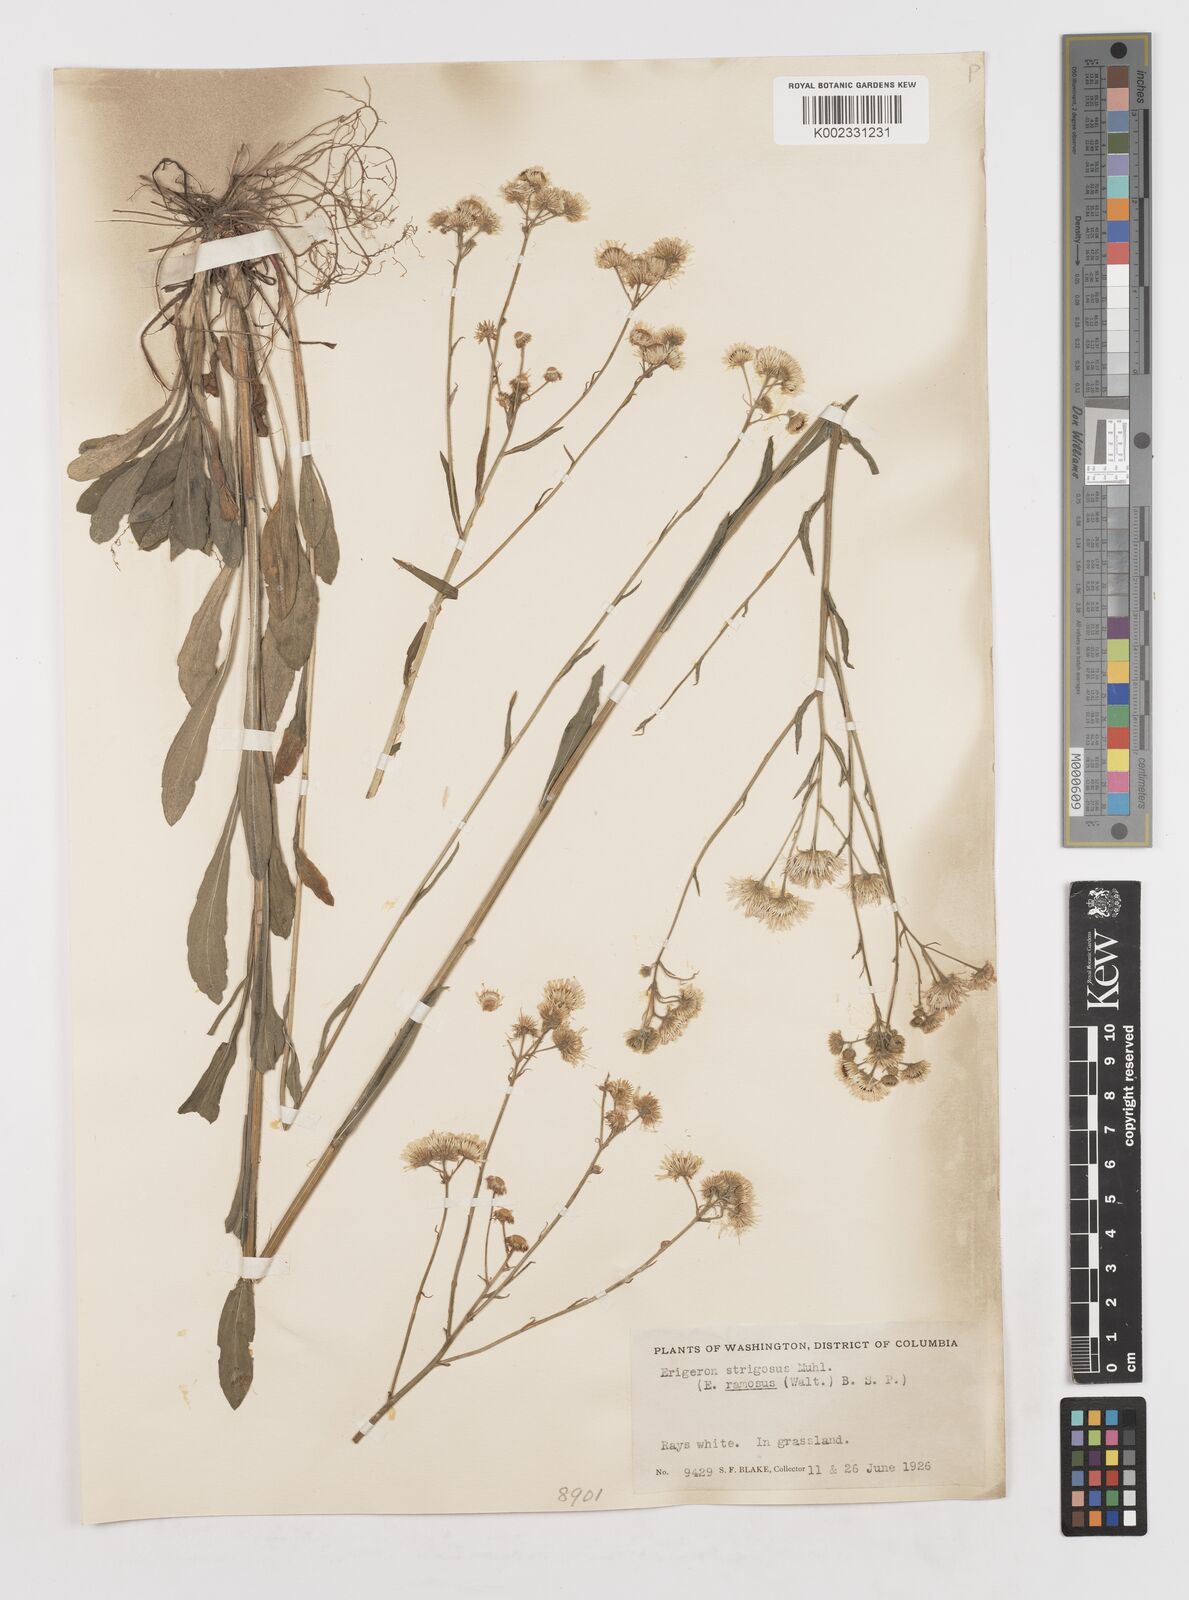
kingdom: Plantae
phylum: Tracheophyta
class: Magnoliopsida
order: Asterales
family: Asteraceae
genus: Erigeron
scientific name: Erigeron strigosus
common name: Common eastern fleabane
